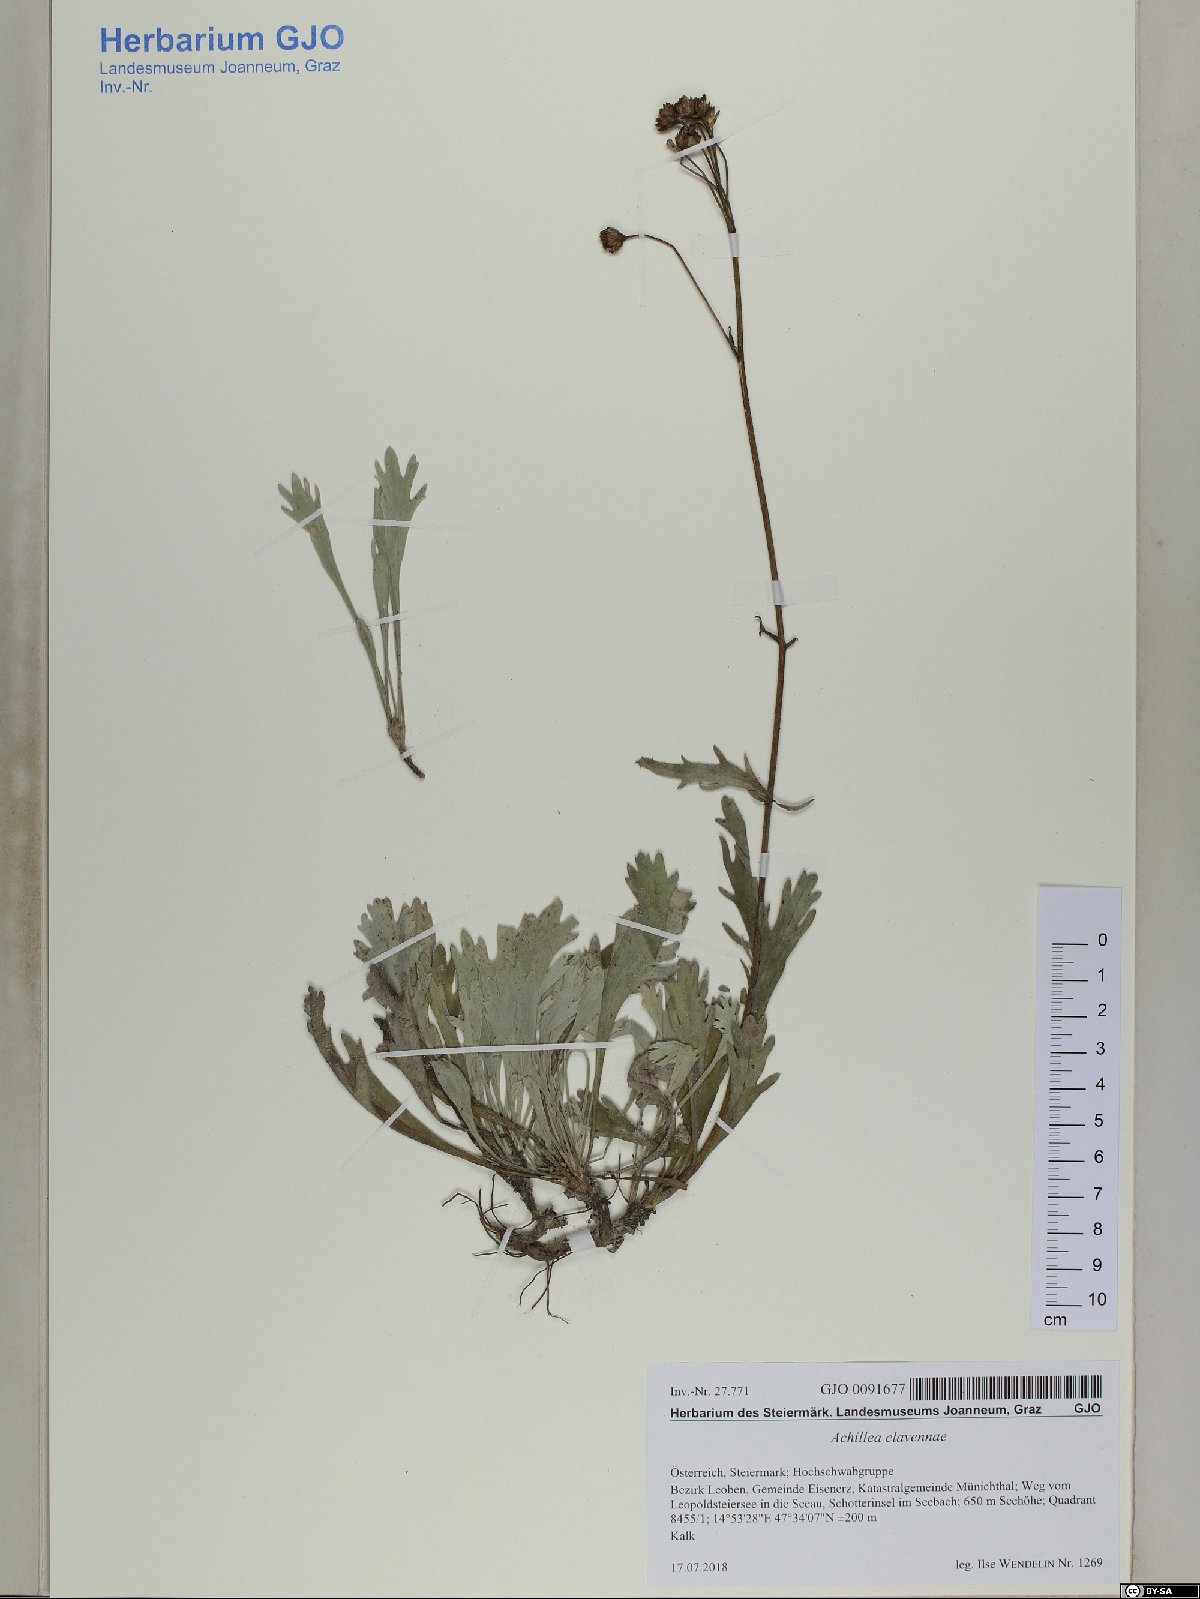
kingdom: Plantae
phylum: Tracheophyta
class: Magnoliopsida
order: Asterales
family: Asteraceae
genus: Achillea
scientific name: Achillea clavennae
